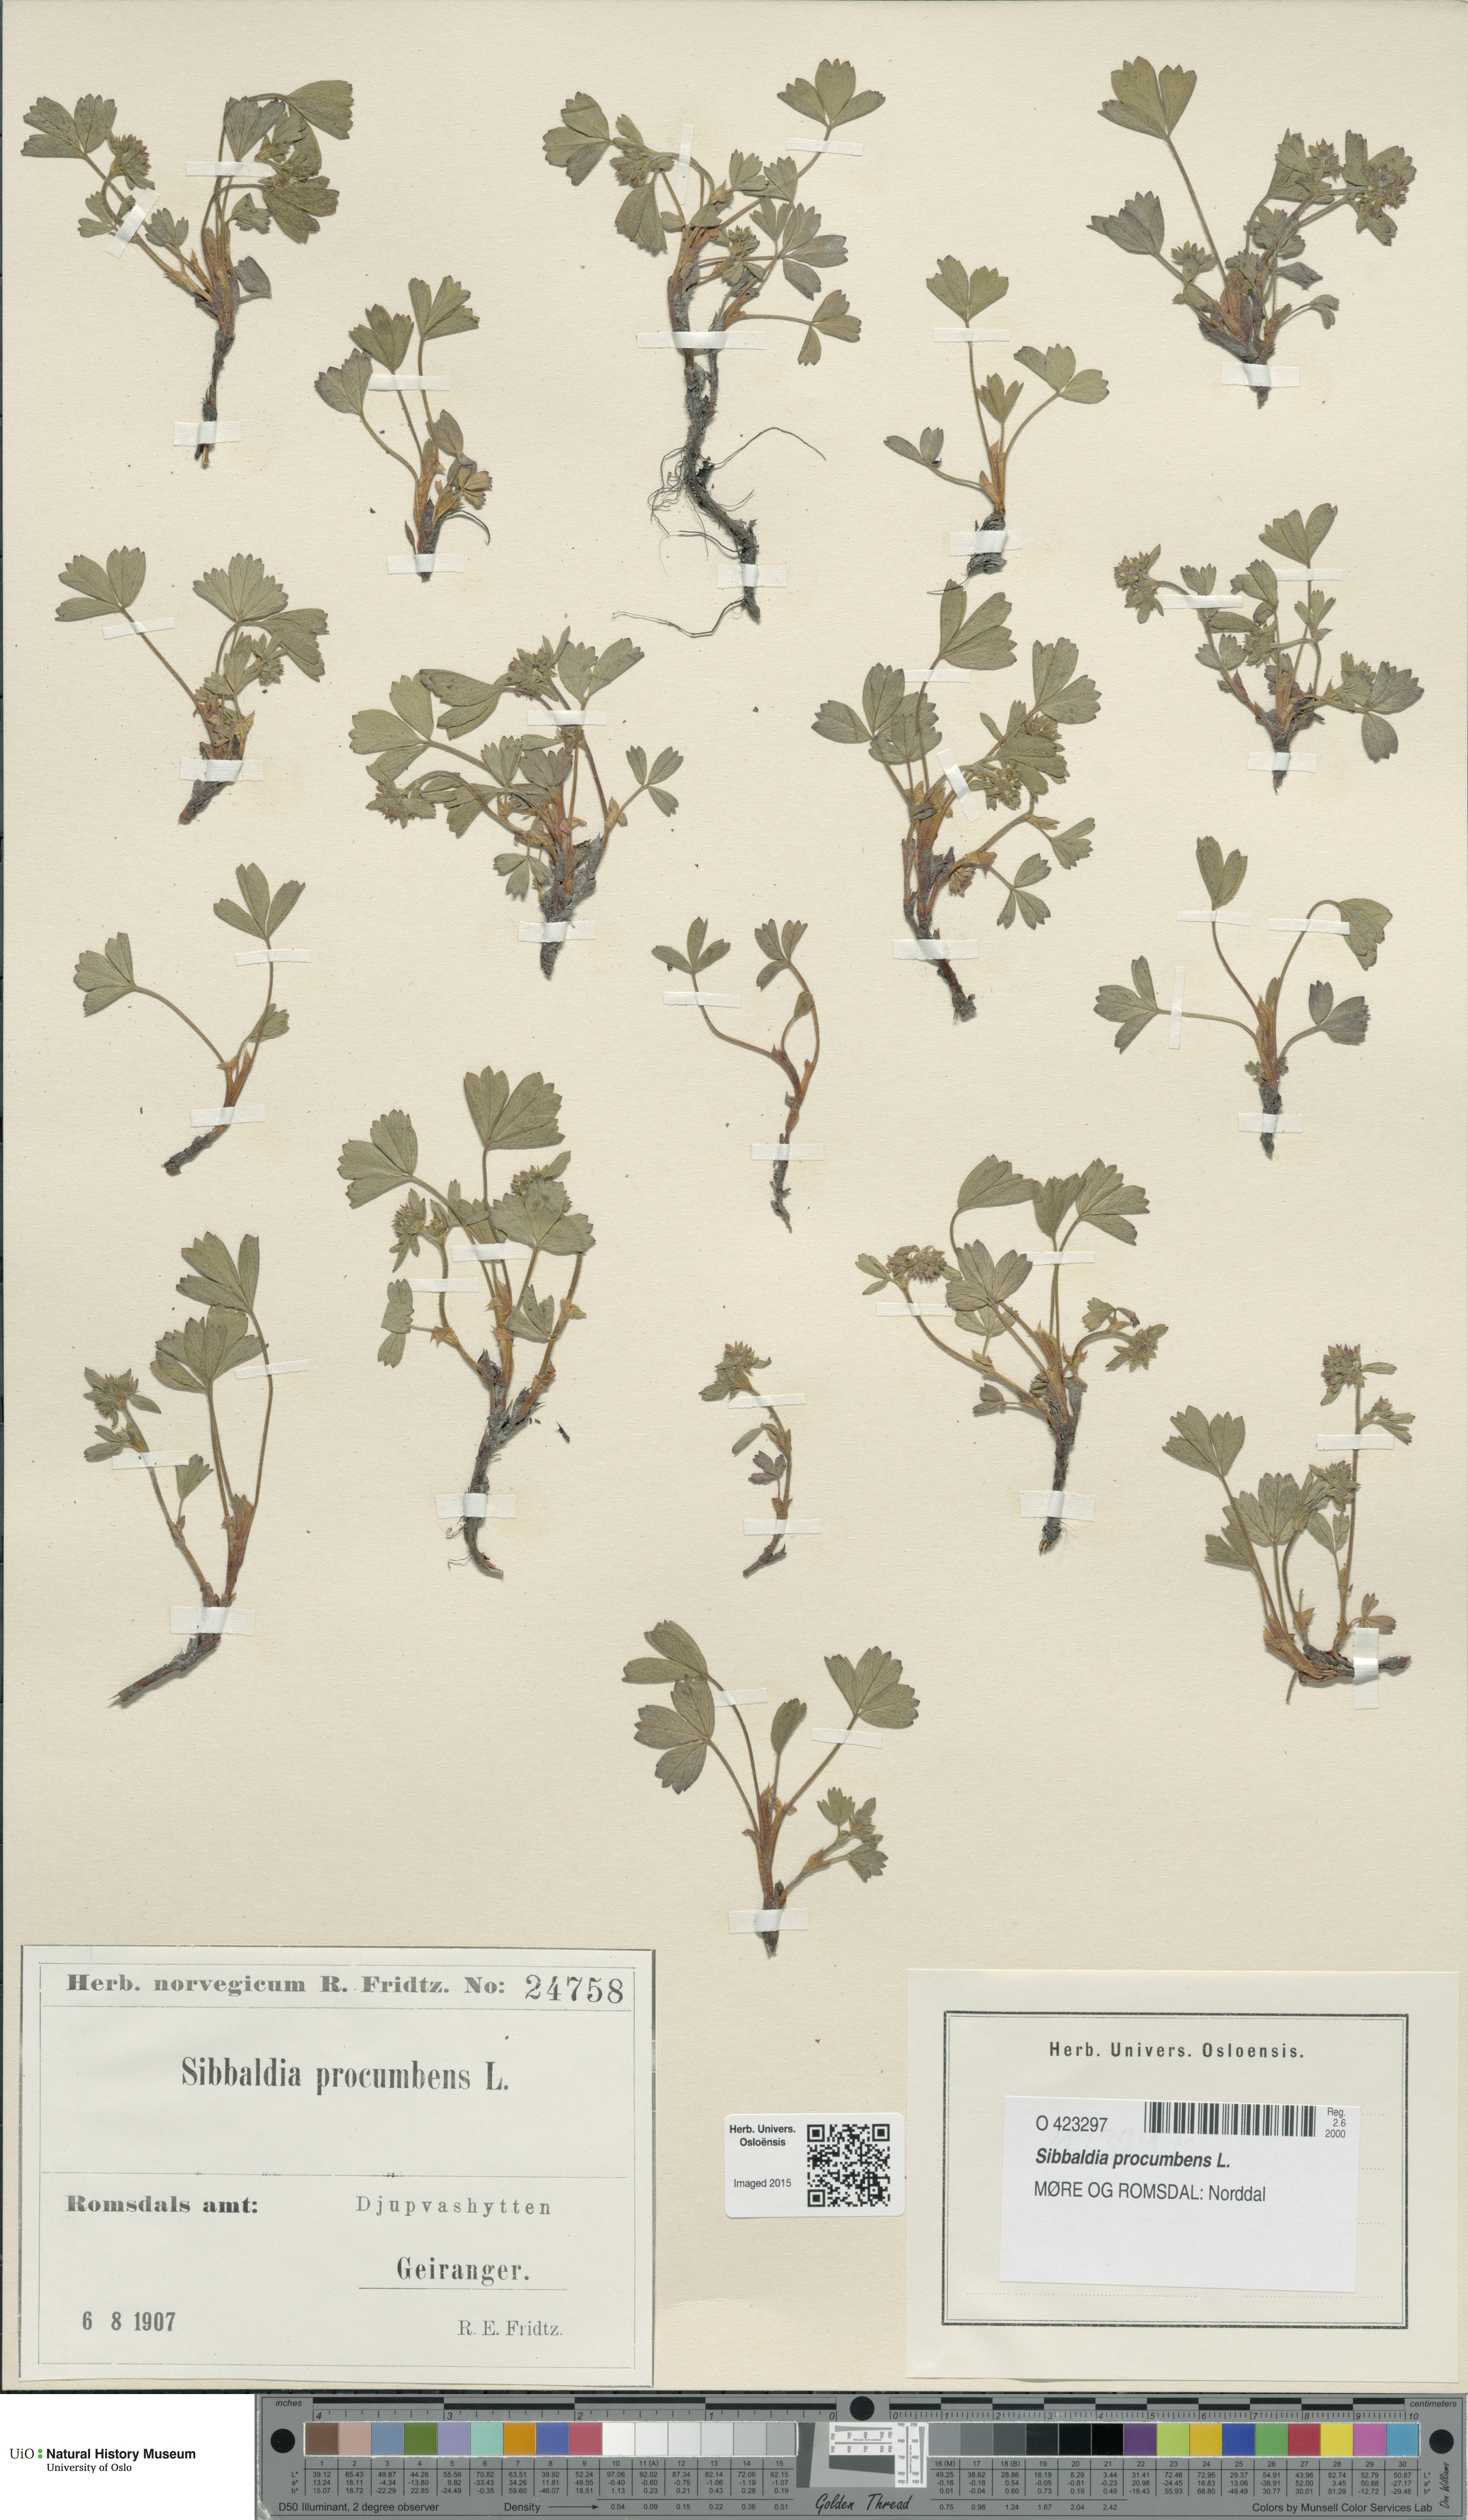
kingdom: Plantae
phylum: Tracheophyta
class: Magnoliopsida
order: Rosales
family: Rosaceae
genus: Sibbaldia
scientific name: Sibbaldia procumbens
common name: Creeping sibbaldia
